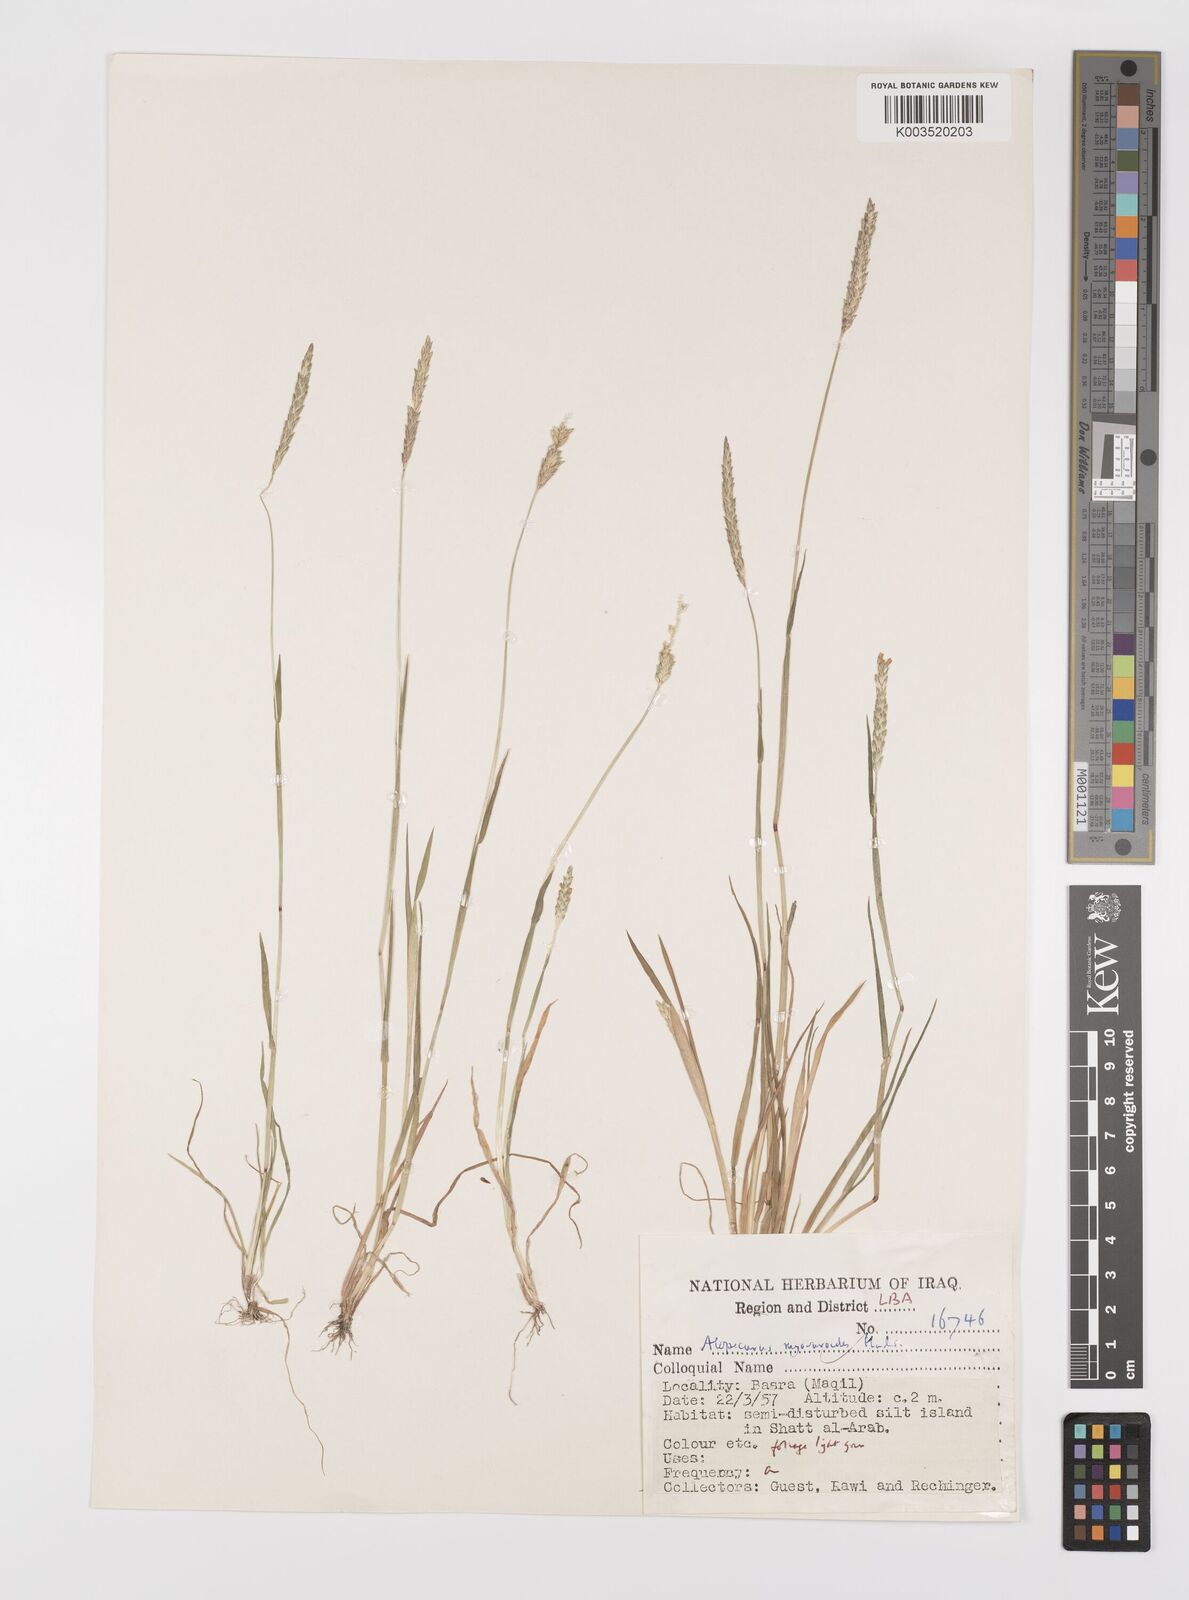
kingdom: Plantae
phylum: Tracheophyta
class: Liliopsida
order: Poales
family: Poaceae
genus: Alopecurus
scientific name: Alopecurus myosuroides
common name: Black-grass
